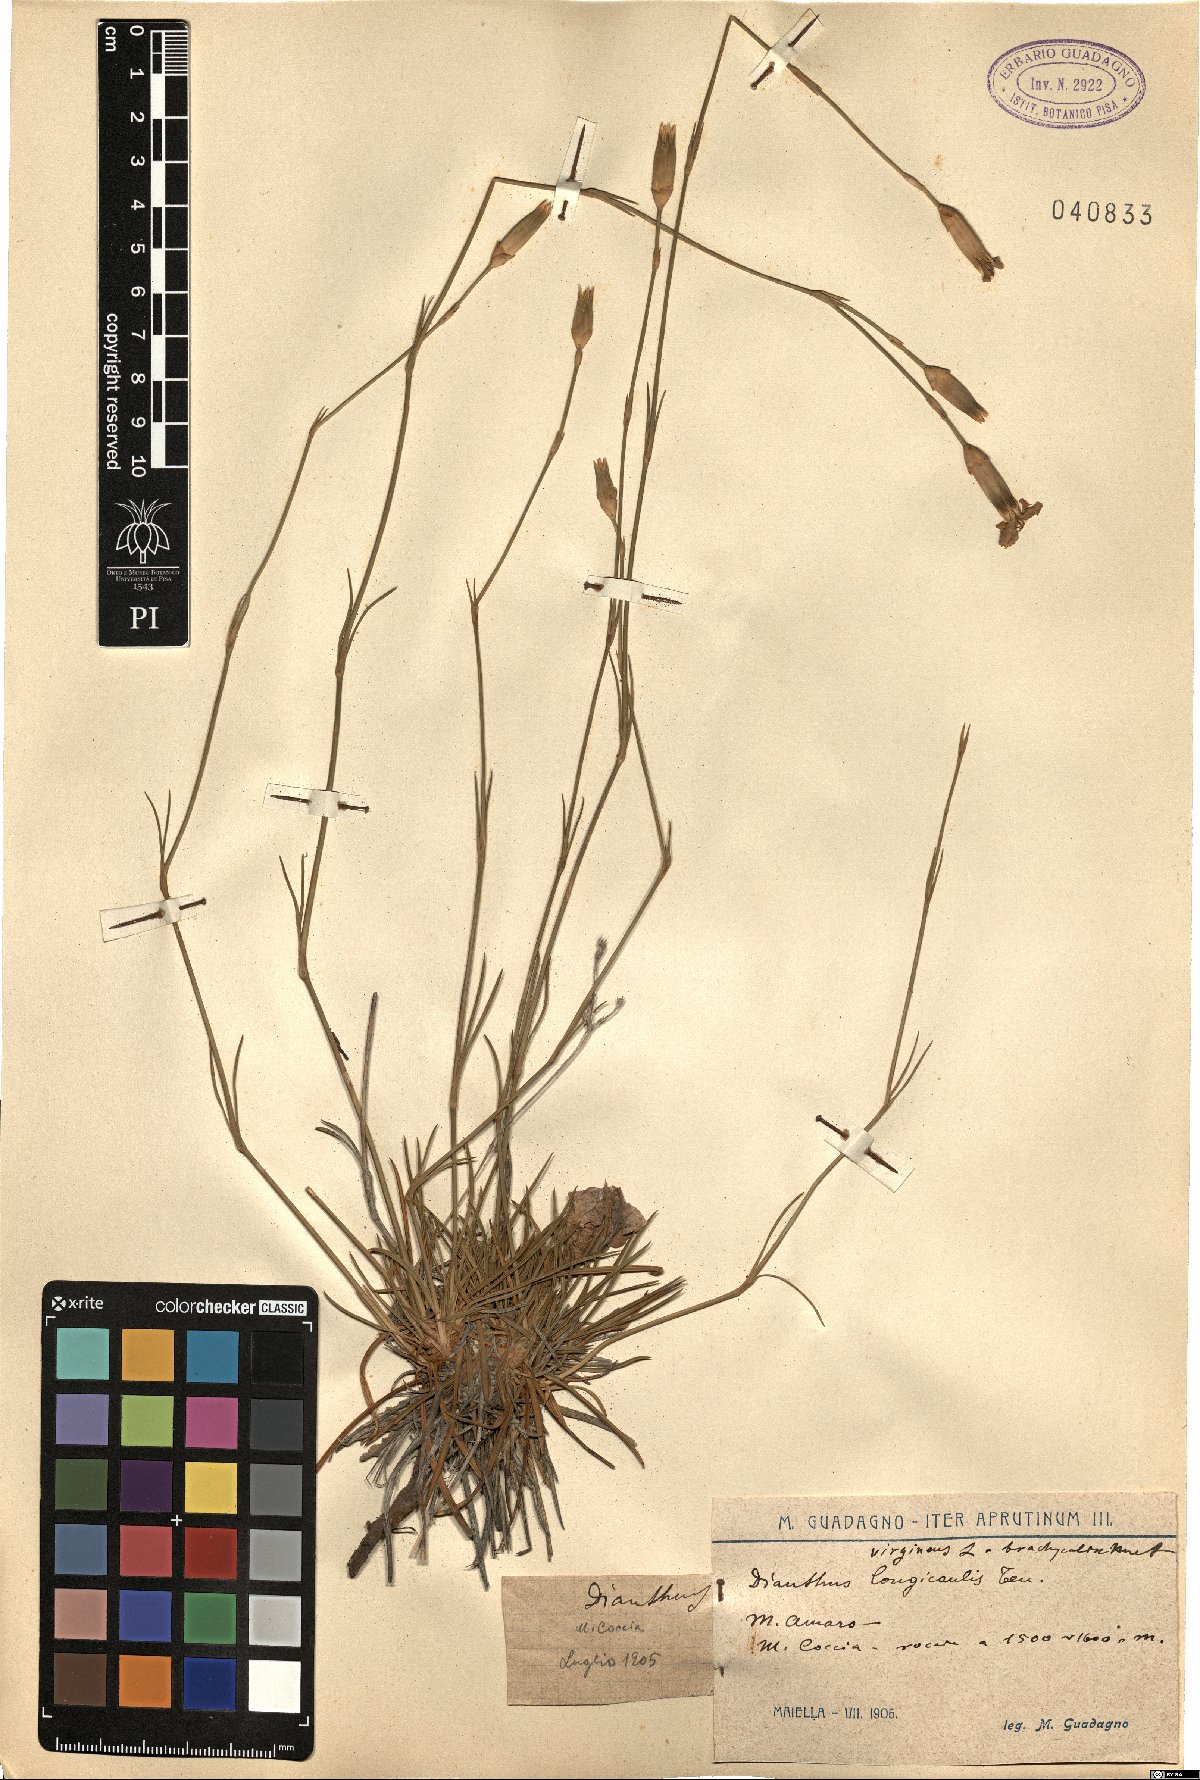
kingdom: Plantae
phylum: Tracheophyta
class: Magnoliopsida
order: Caryophyllales
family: Caryophyllaceae
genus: Dianthus
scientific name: Dianthus virgineus
